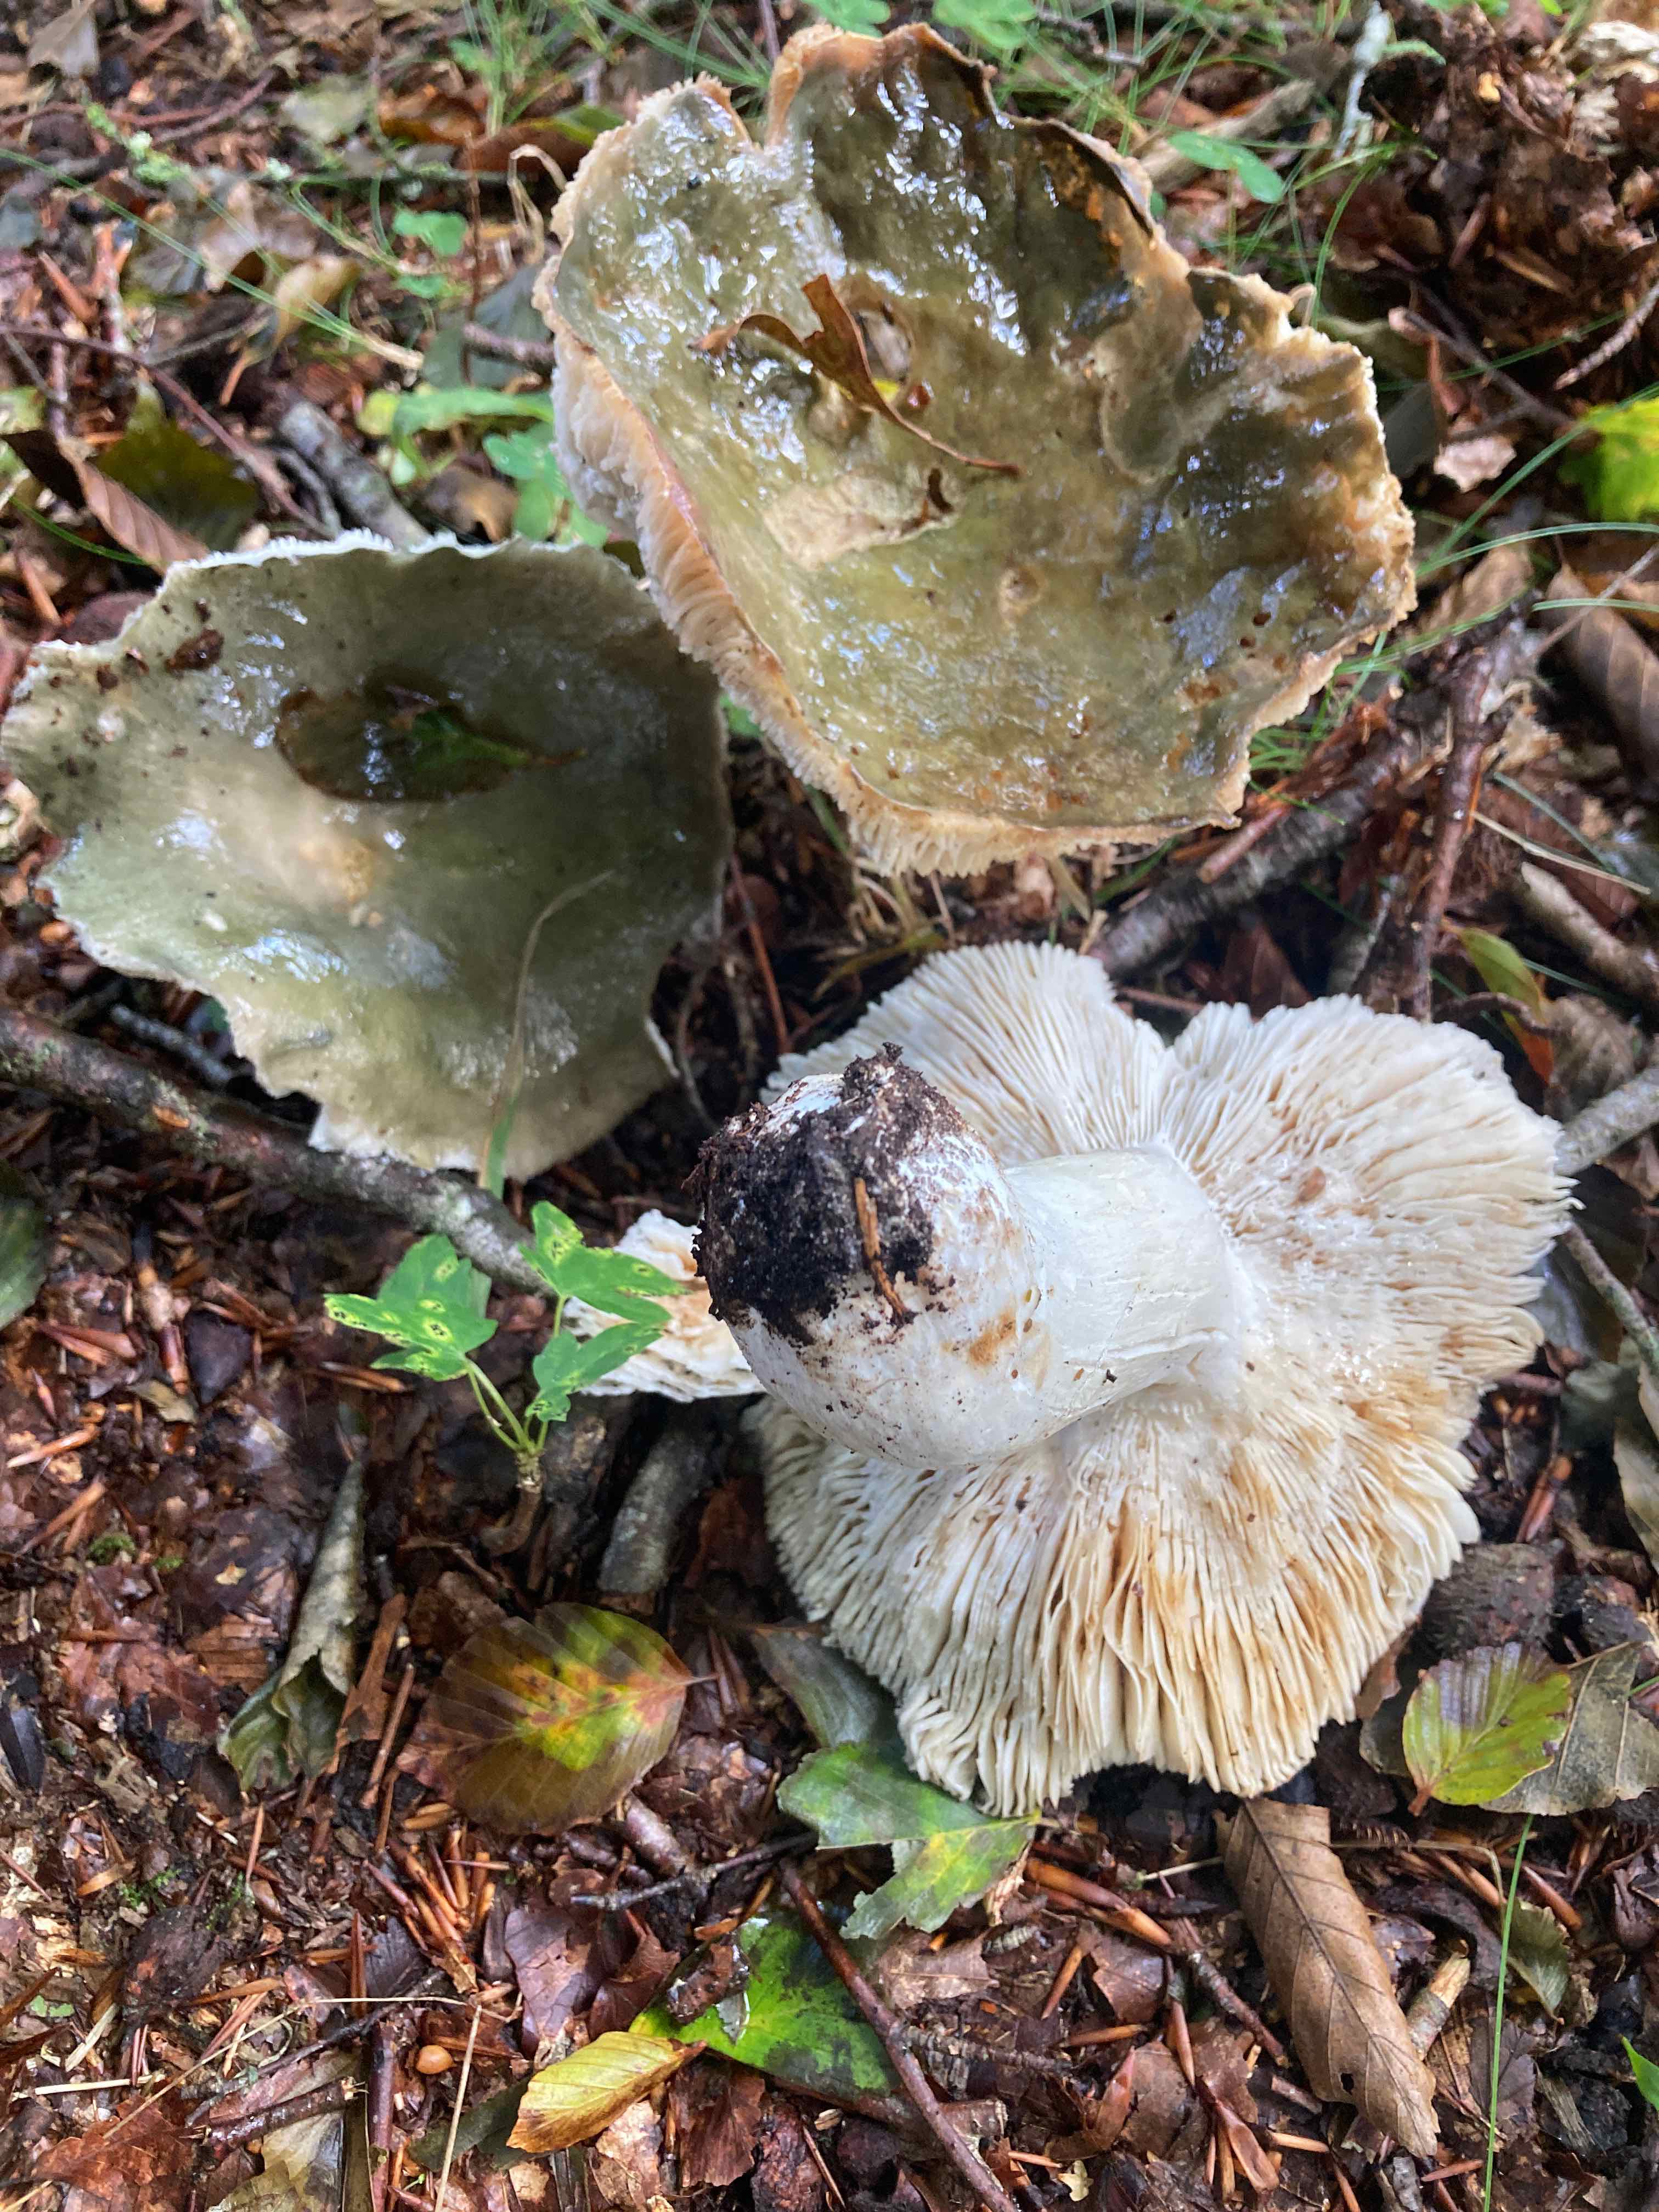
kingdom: Fungi
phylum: Basidiomycota
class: Agaricomycetes
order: Russulales
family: Russulaceae
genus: Russula
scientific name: Russula heterophylla
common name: gaffelbladet skørhat
